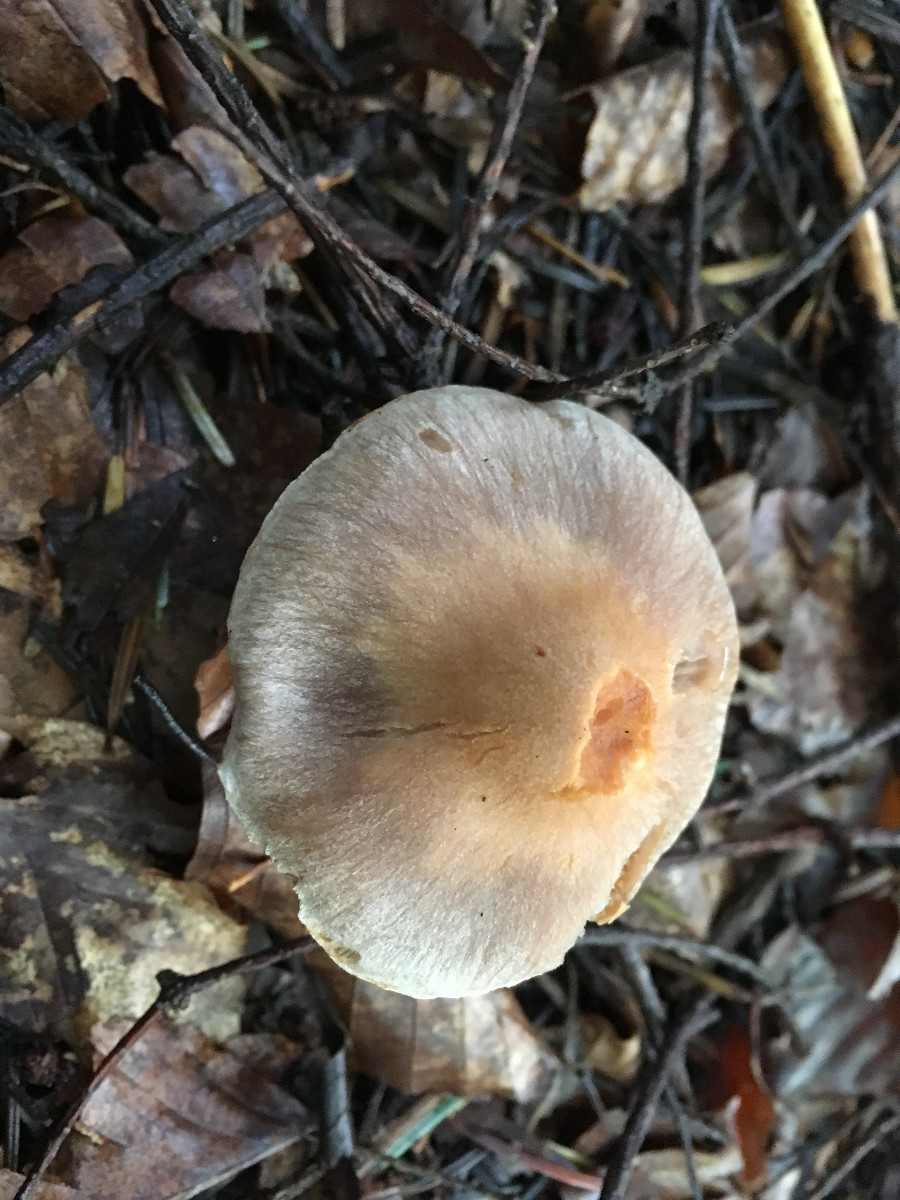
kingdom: Fungi
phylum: Basidiomycota
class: Agaricomycetes
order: Agaricales
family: Cortinariaceae
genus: Cortinarius
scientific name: Cortinarius
